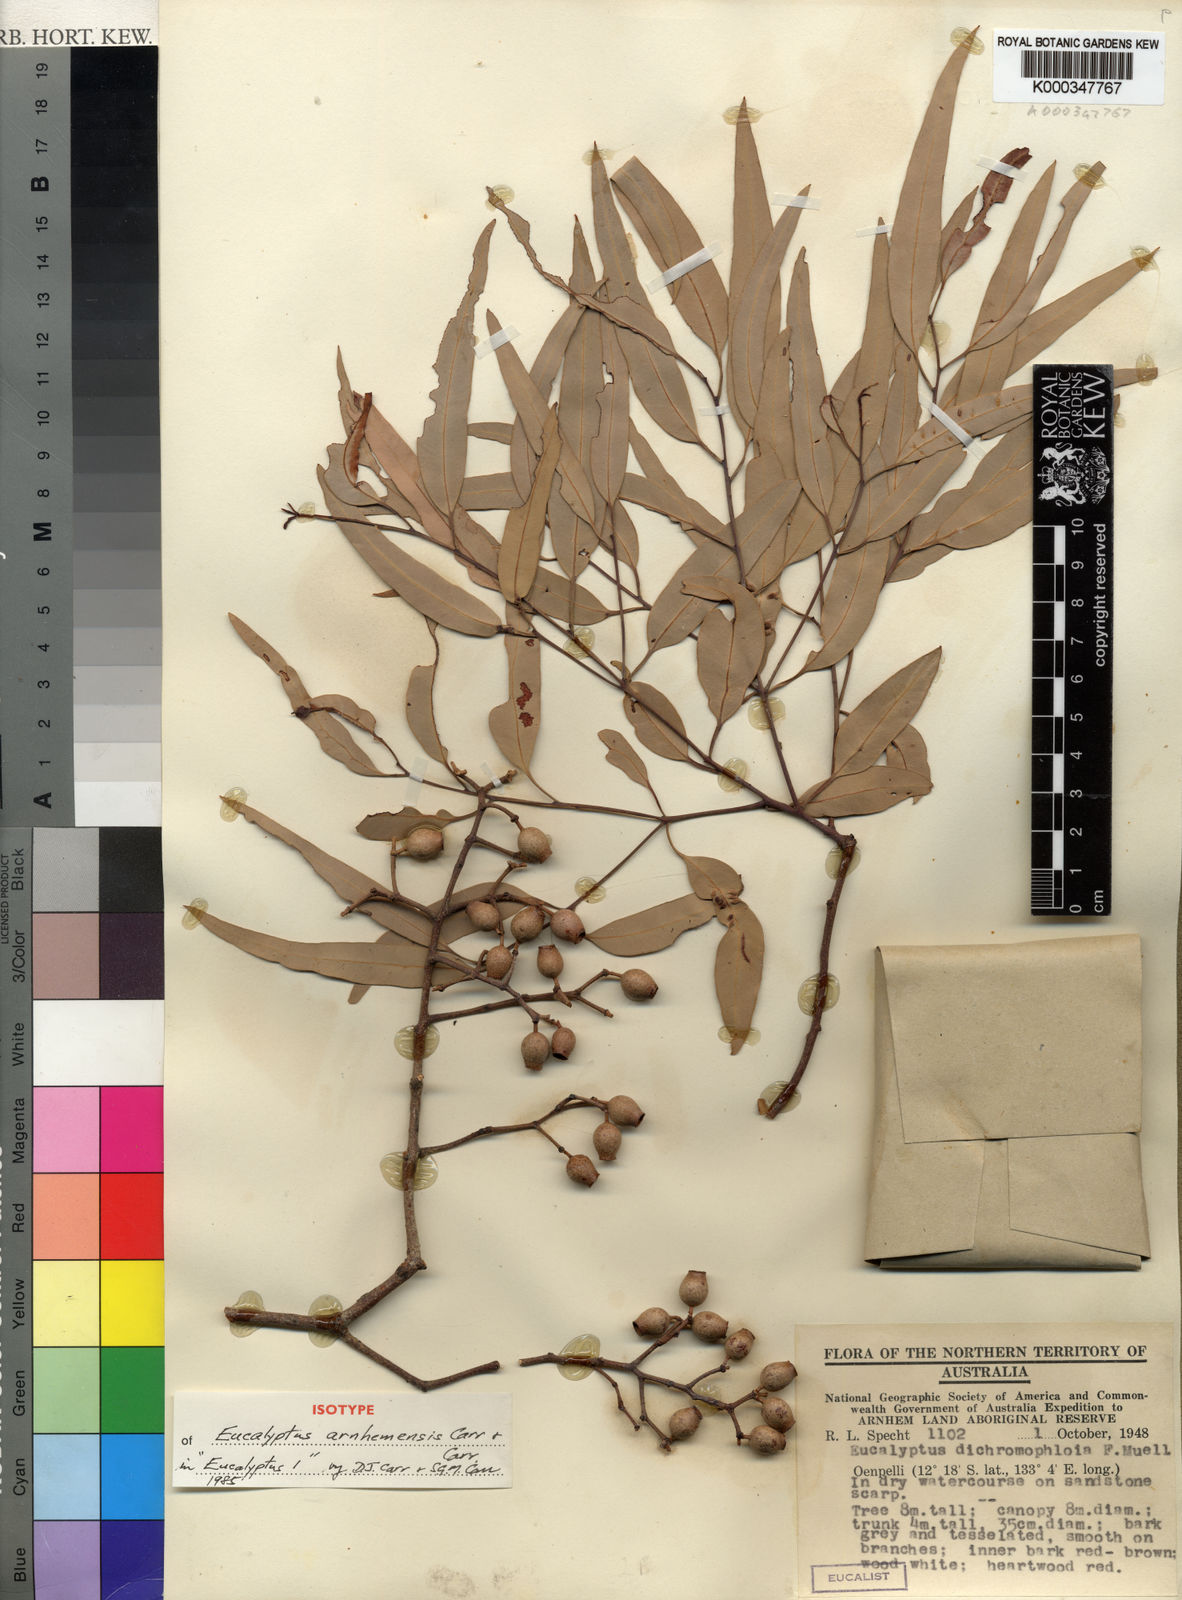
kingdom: Plantae
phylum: Tracheophyta
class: Magnoliopsida
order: Myrtales
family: Myrtaceae
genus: Corymbia
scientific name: Corymbia arnhemensis
